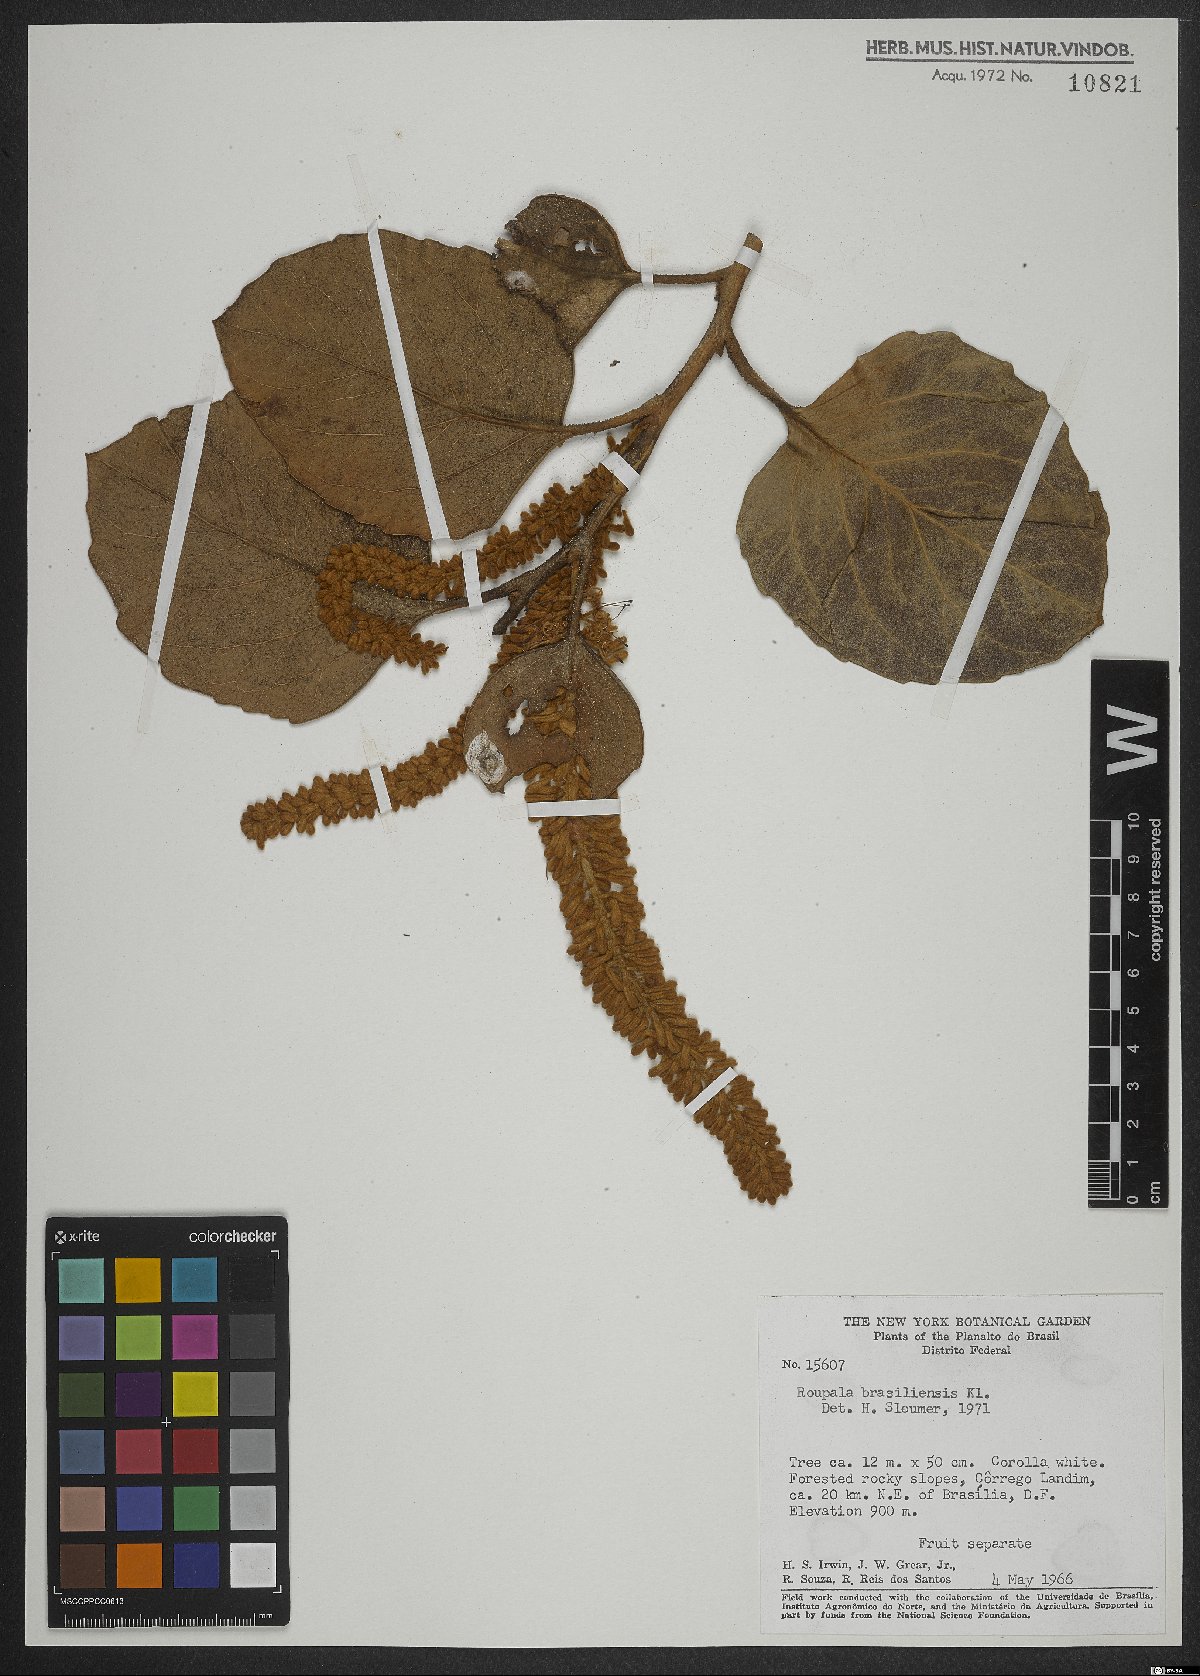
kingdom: Plantae
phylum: Tracheophyta
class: Magnoliopsida
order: Proteales
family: Proteaceae
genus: Roupala
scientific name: Roupala montana
